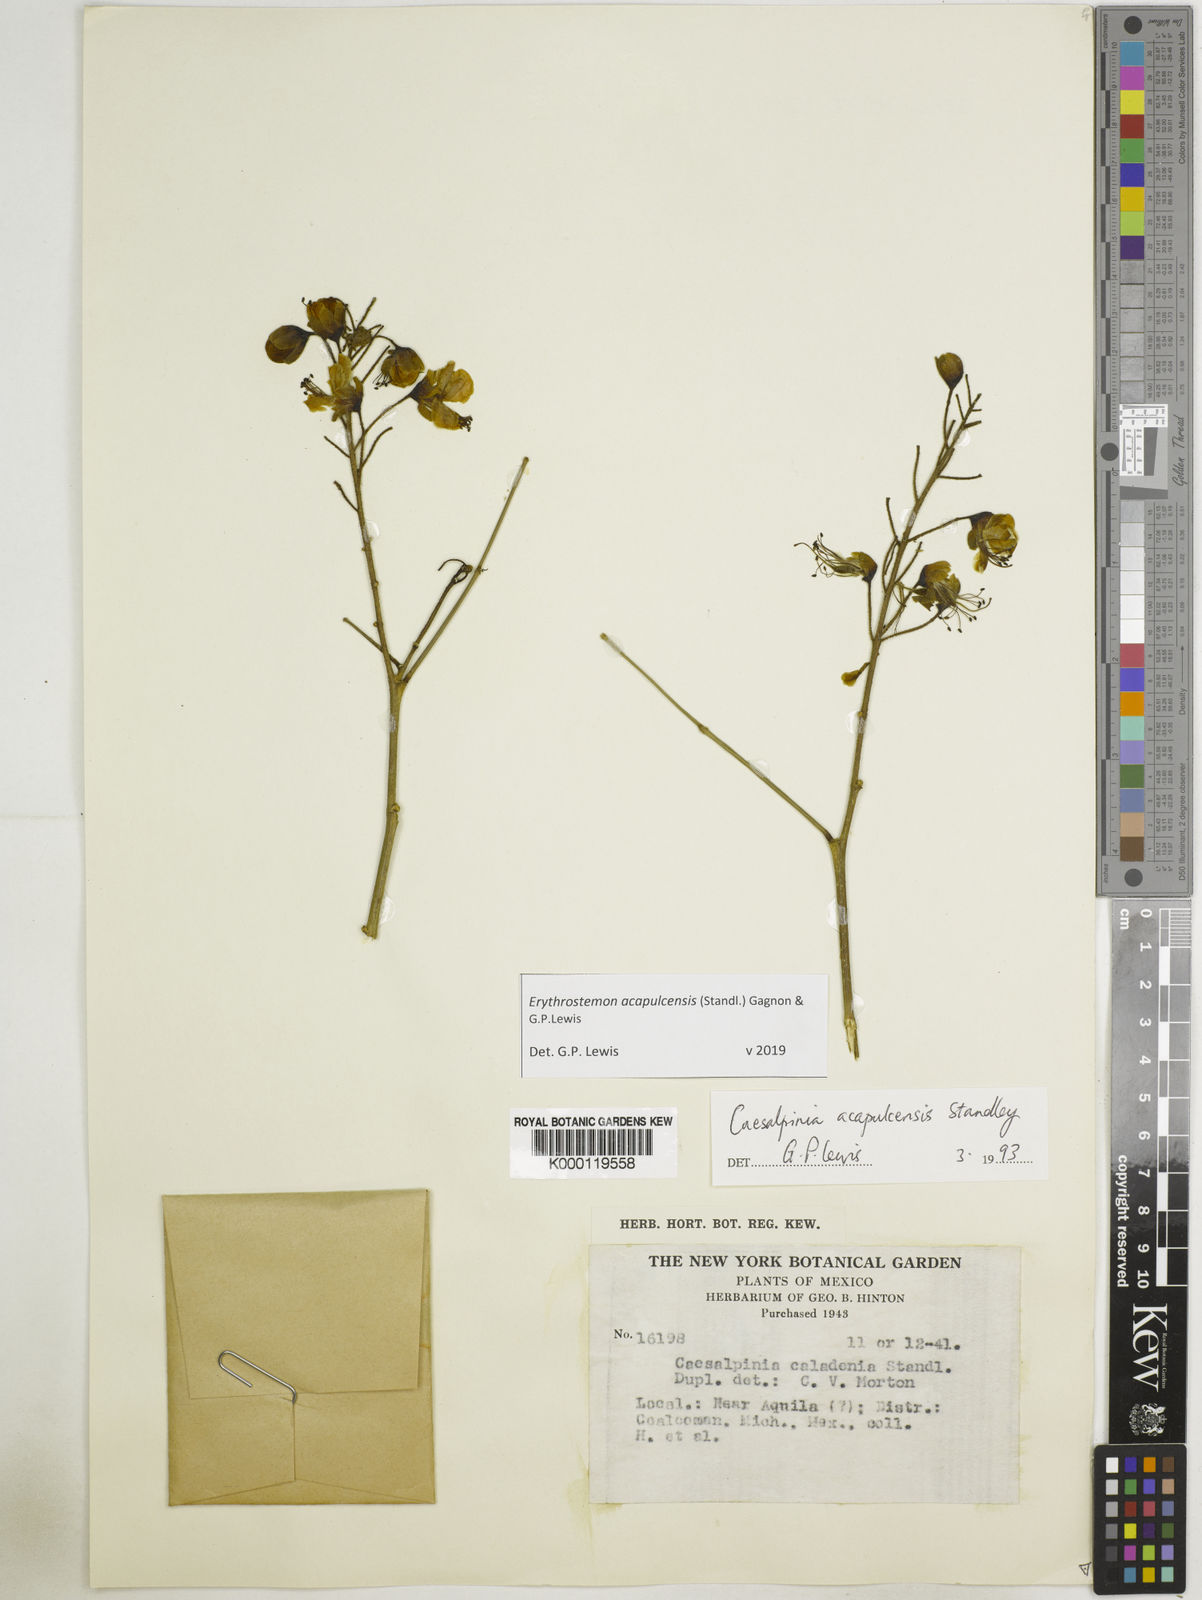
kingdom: Plantae
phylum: Tracheophyta
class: Magnoliopsida
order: Fabales
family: Fabaceae
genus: Erythrostemon
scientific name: Erythrostemon acapulcensis
